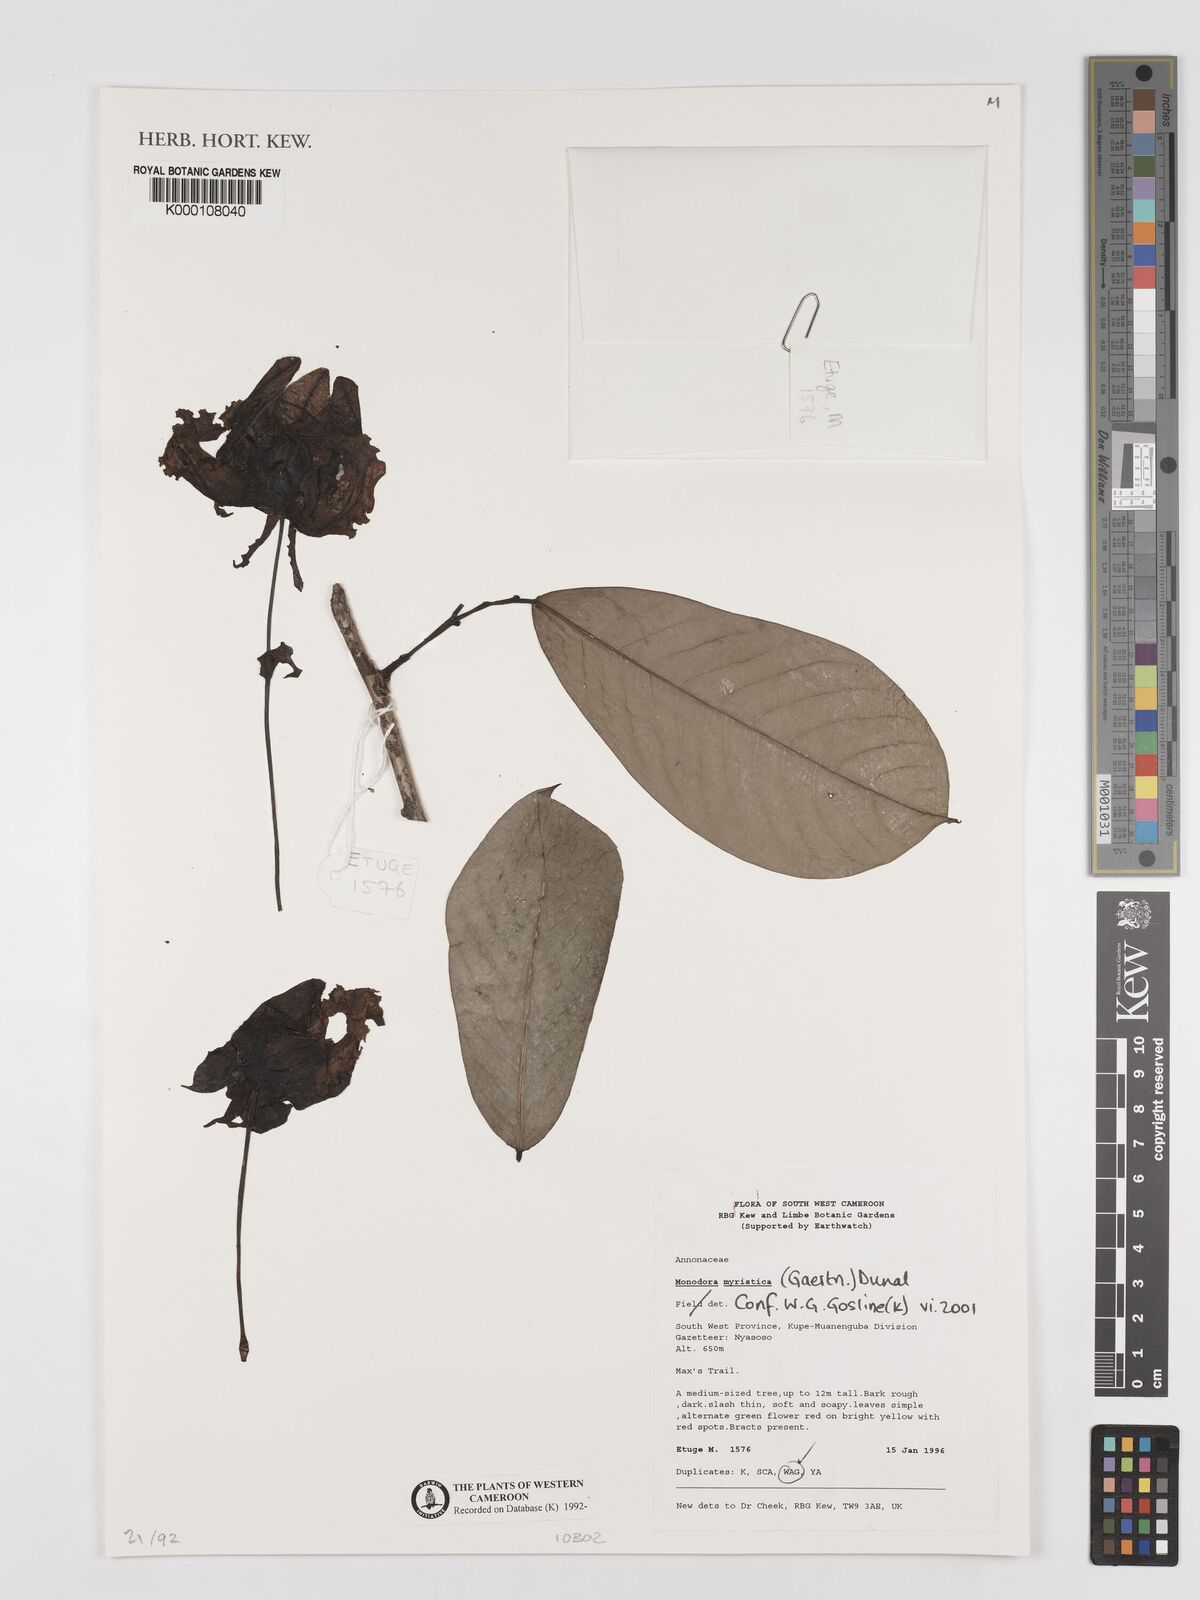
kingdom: Plantae
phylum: Tracheophyta
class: Magnoliopsida
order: Magnoliales
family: Annonaceae
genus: Monodora
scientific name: Monodora myristica
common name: African nutmeg
